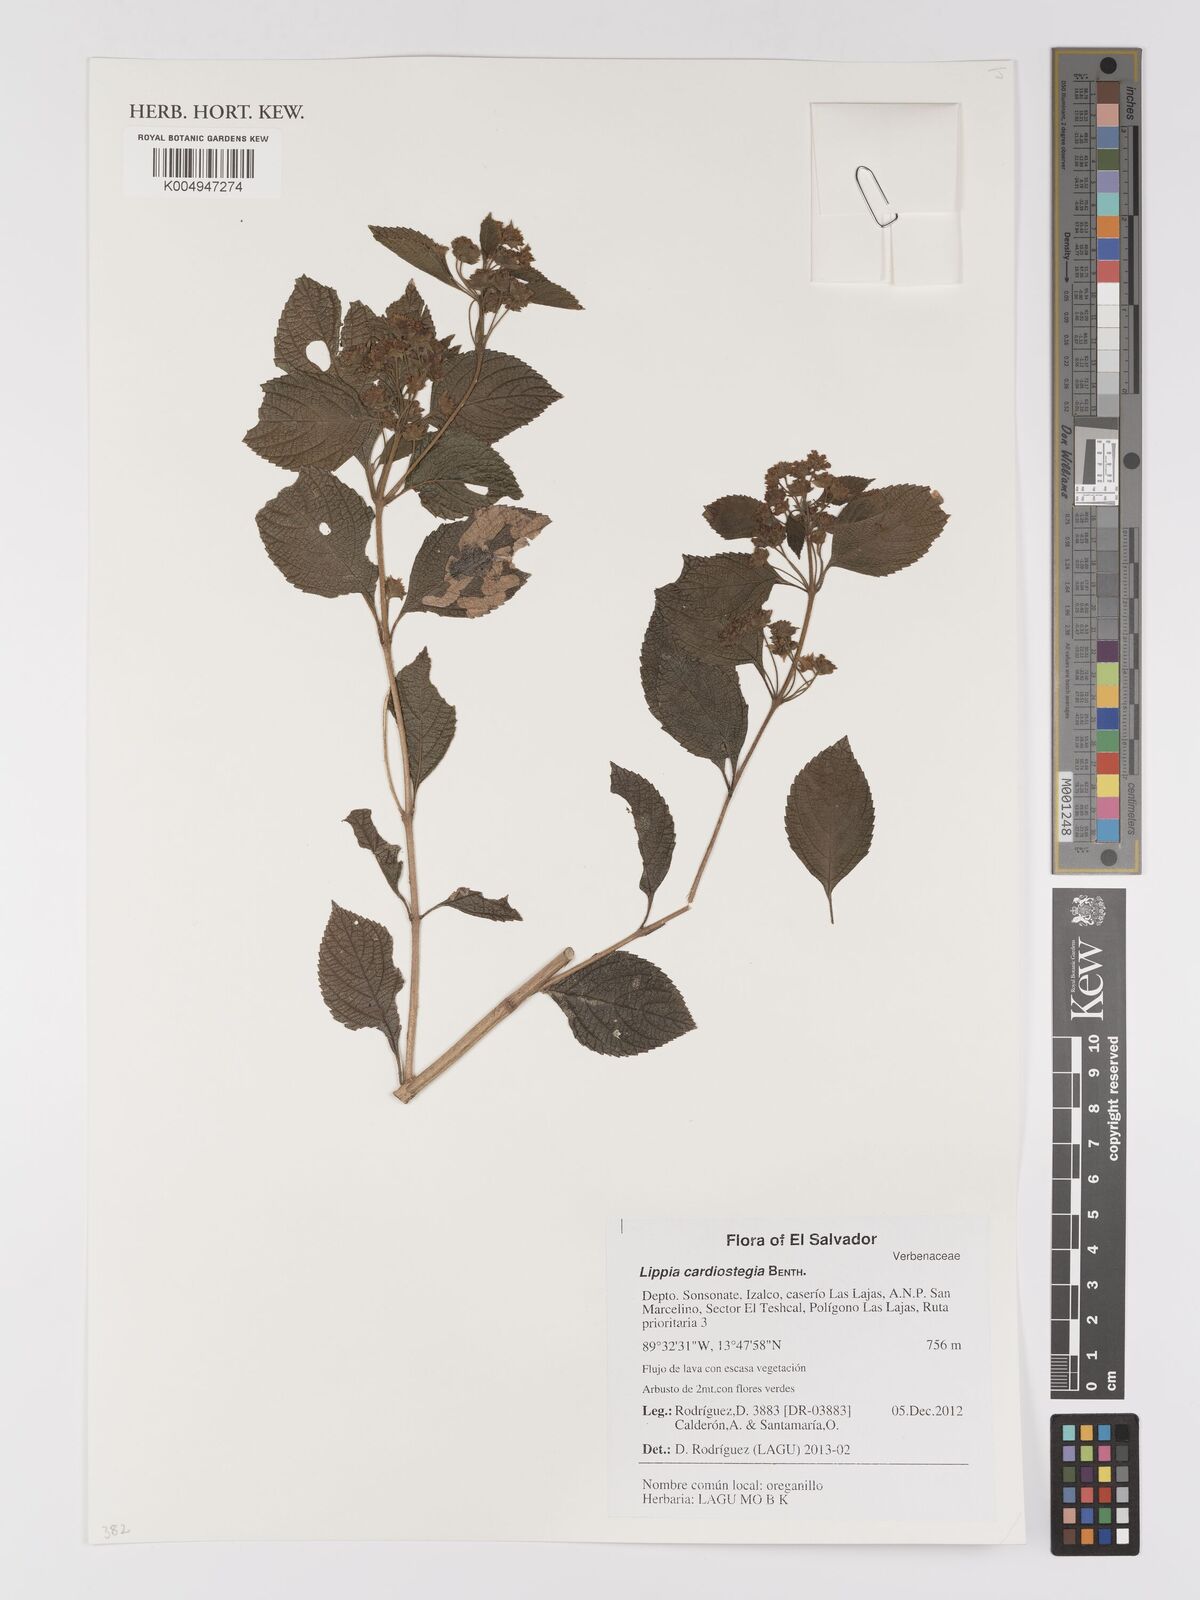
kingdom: Plantae
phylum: Tracheophyta
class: Magnoliopsida
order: Lamiales
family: Verbenaceae
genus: Lippia
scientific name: Lippia cardiostegia
